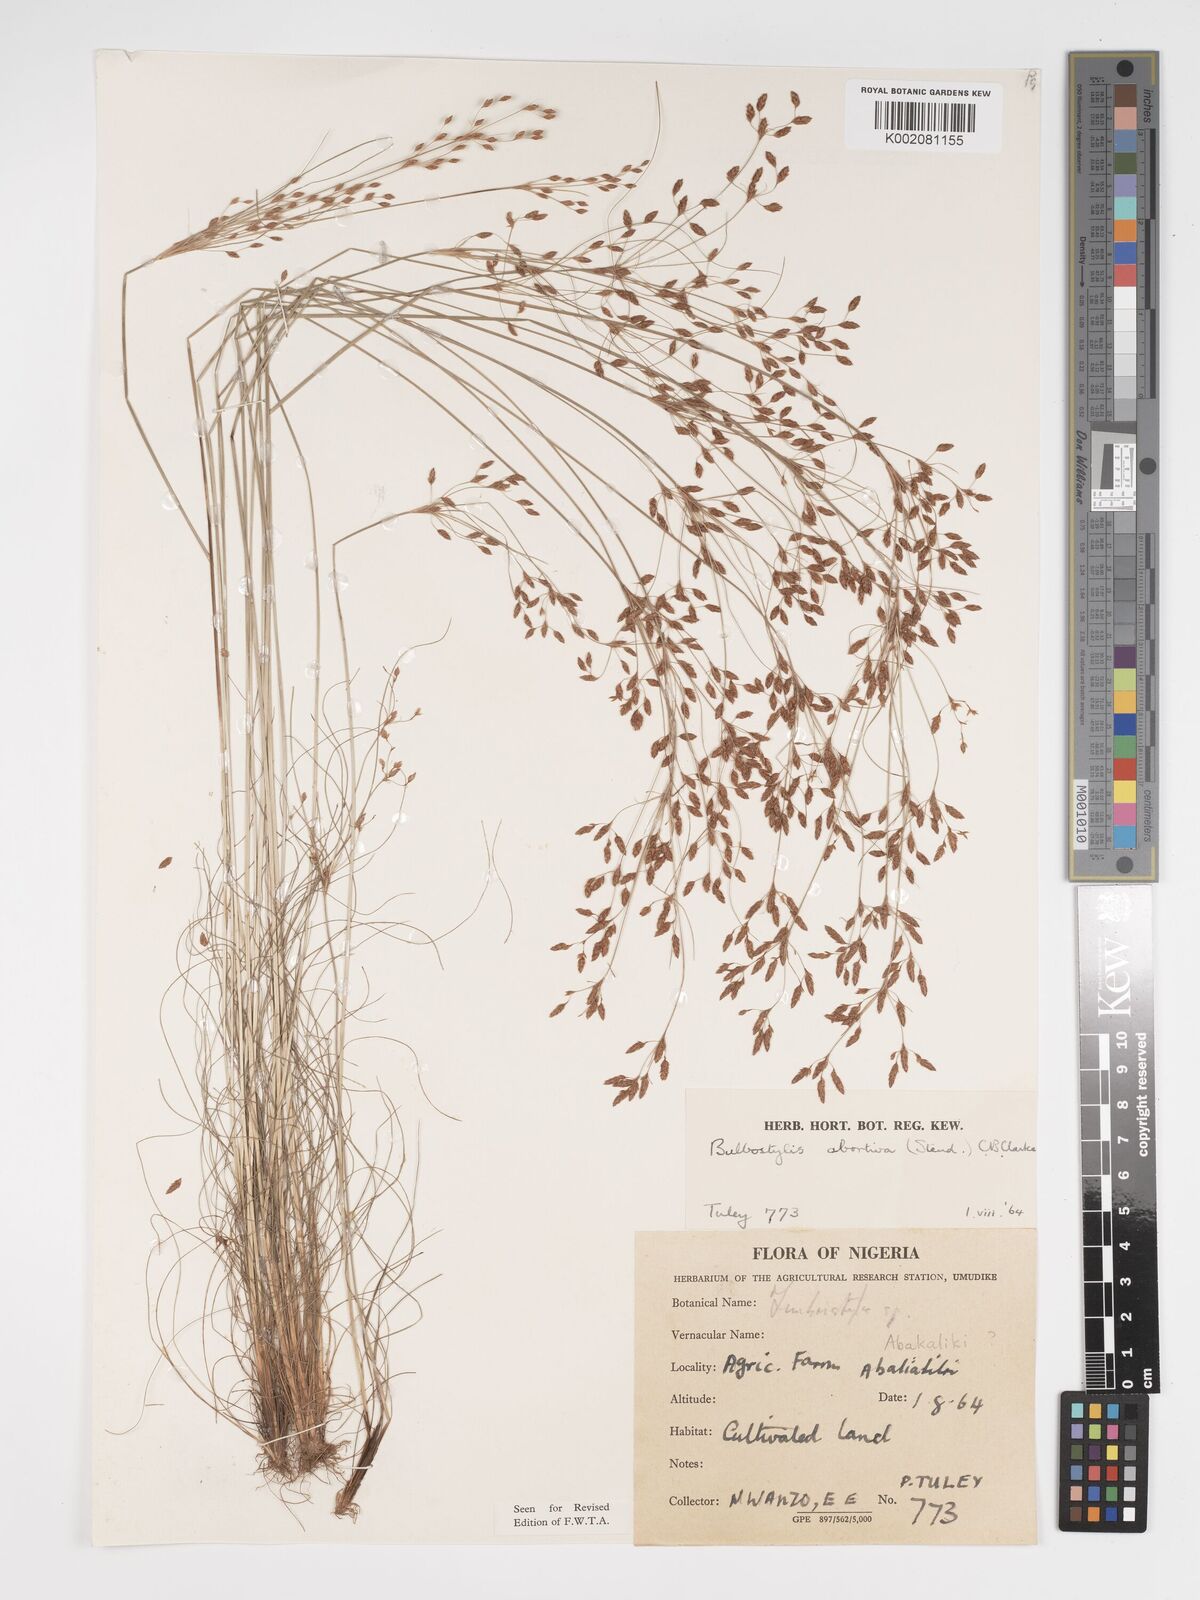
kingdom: Plantae
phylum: Tracheophyta
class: Liliopsida
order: Poales
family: Cyperaceae
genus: Bulbostylis
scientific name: Bulbostylis abortiva
